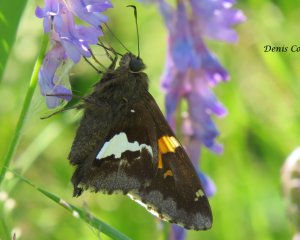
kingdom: Animalia
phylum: Arthropoda
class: Insecta
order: Lepidoptera
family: Hesperiidae
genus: Epargyreus
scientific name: Epargyreus clarus
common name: Silver-spotted Skipper
